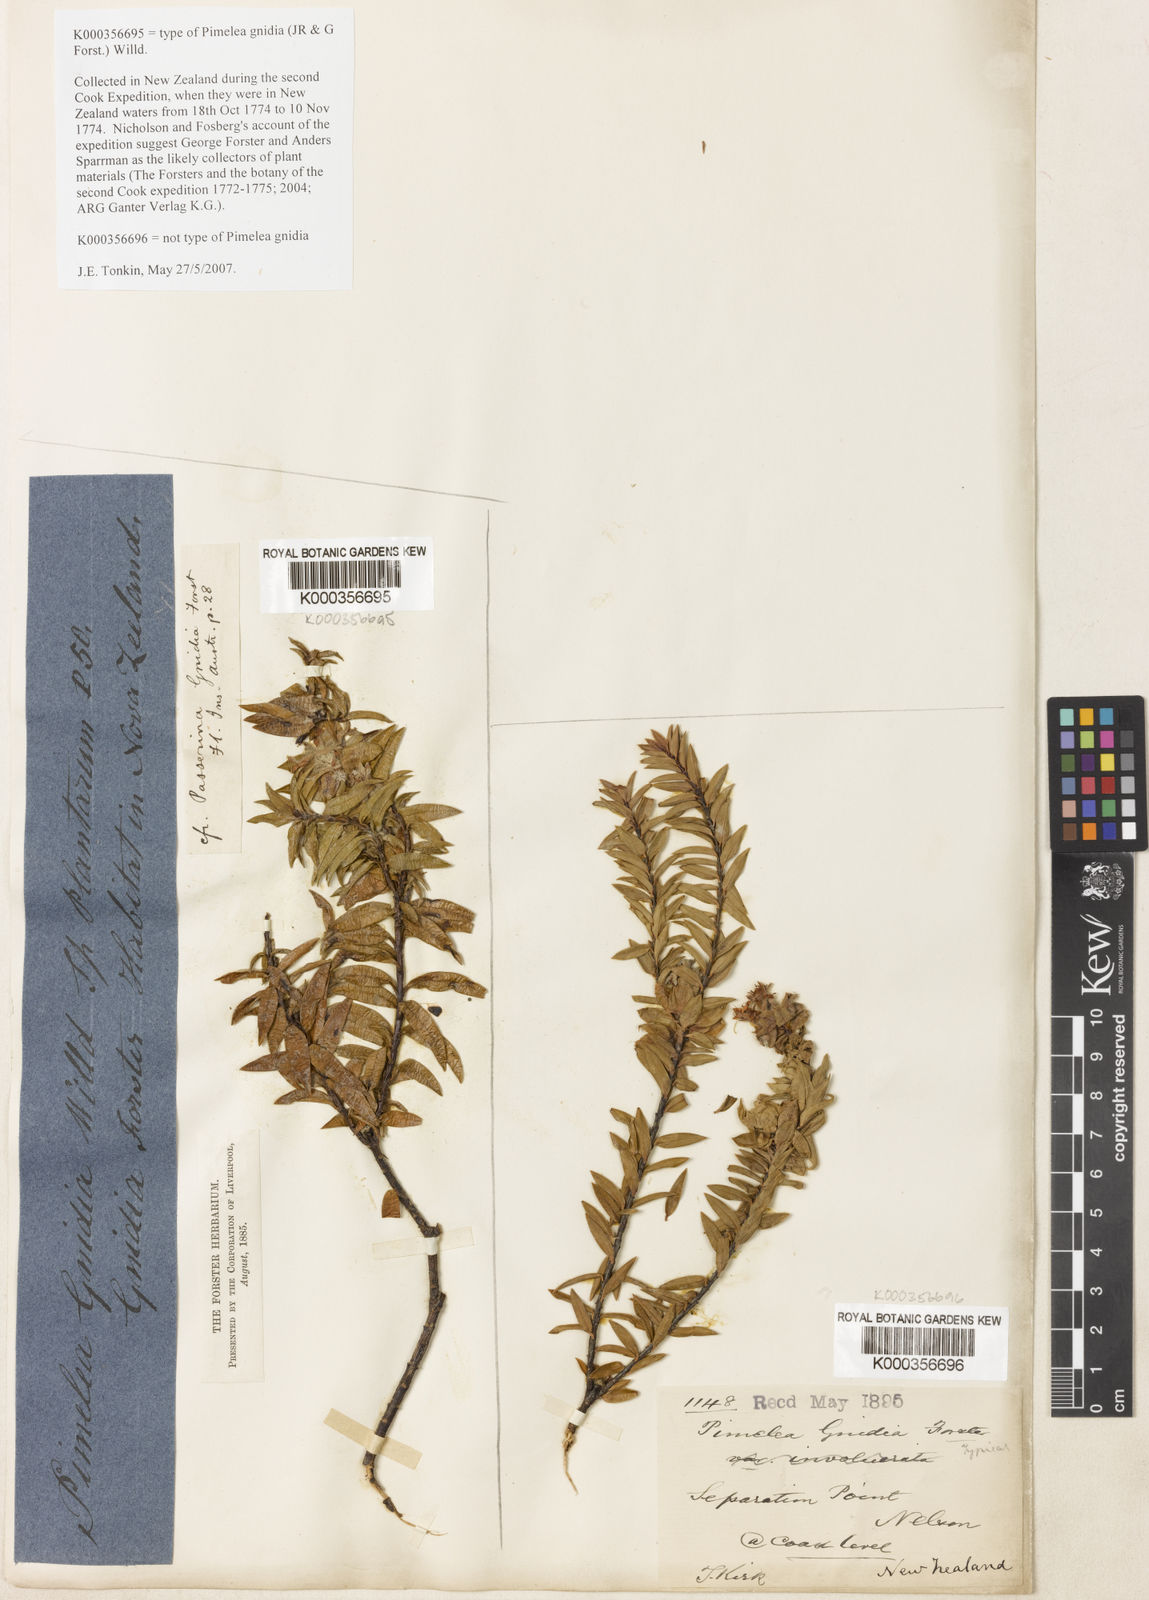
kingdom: Plantae
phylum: Tracheophyta
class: Magnoliopsida
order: Malvales
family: Thymelaeaceae
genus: Pimelea
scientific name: Pimelea
